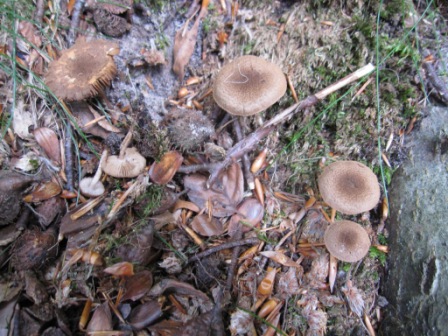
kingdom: Fungi
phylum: Basidiomycota
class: Agaricomycetes
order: Agaricales
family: Inocybaceae
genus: Inocybe
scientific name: Inocybe lanuginosa
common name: uldskællet trævlhat
